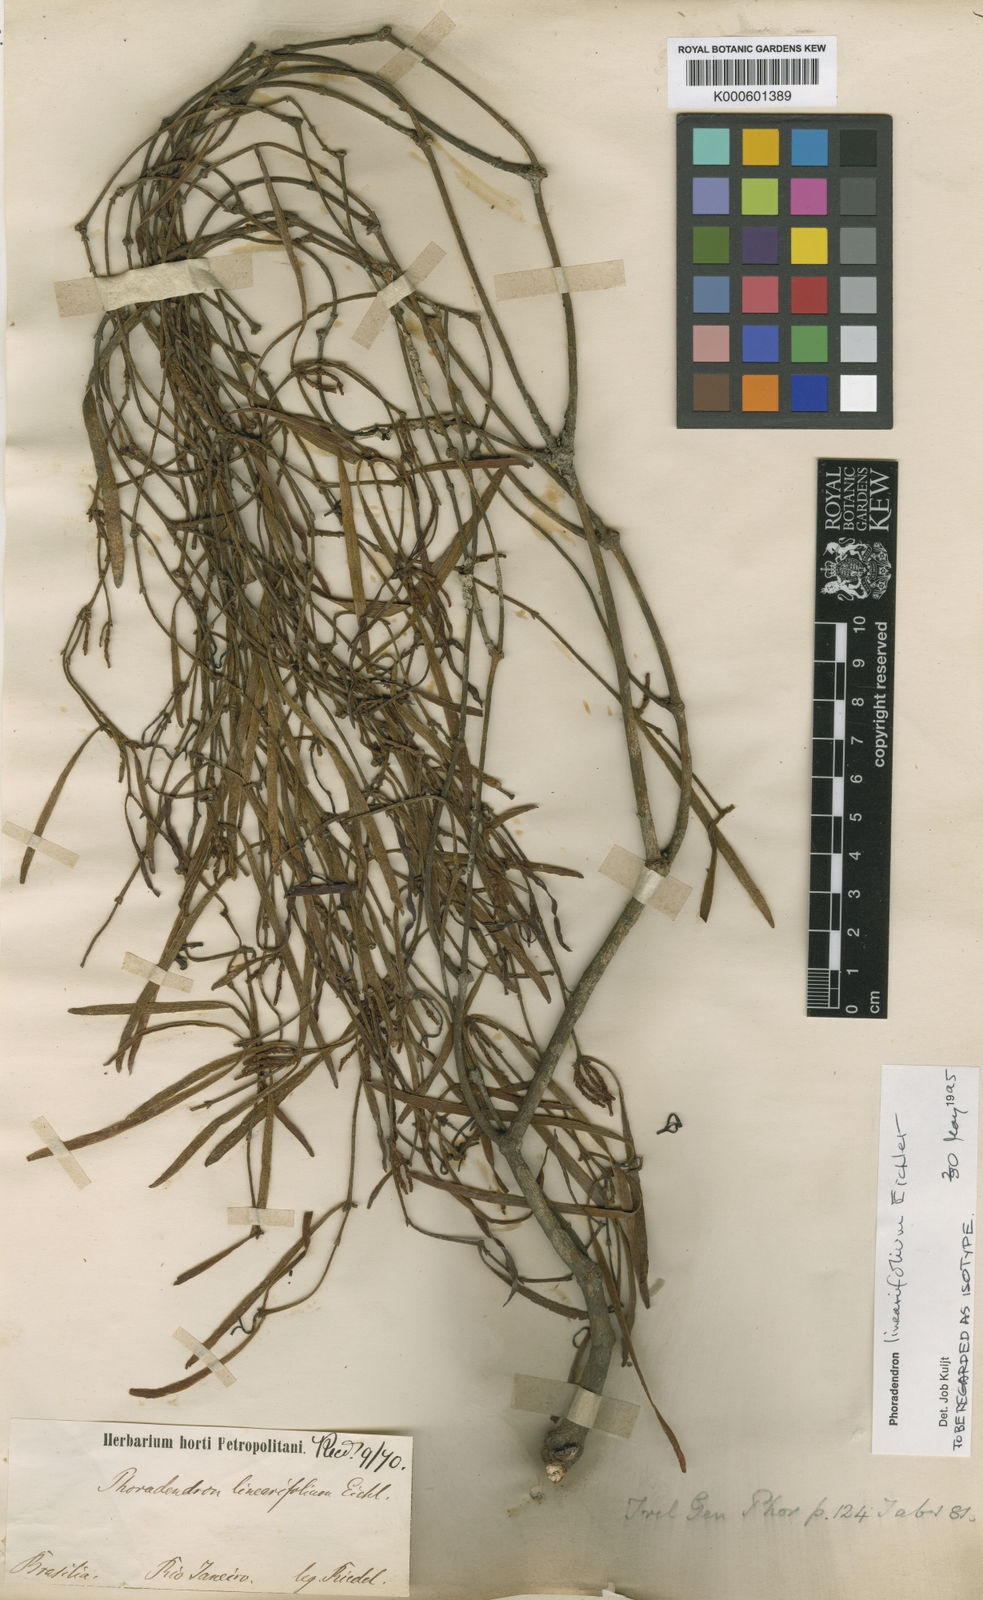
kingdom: Plantae
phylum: Tracheophyta
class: Magnoliopsida
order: Santalales
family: Viscaceae
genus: Phoradendron
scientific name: Phoradendron linearifolium
